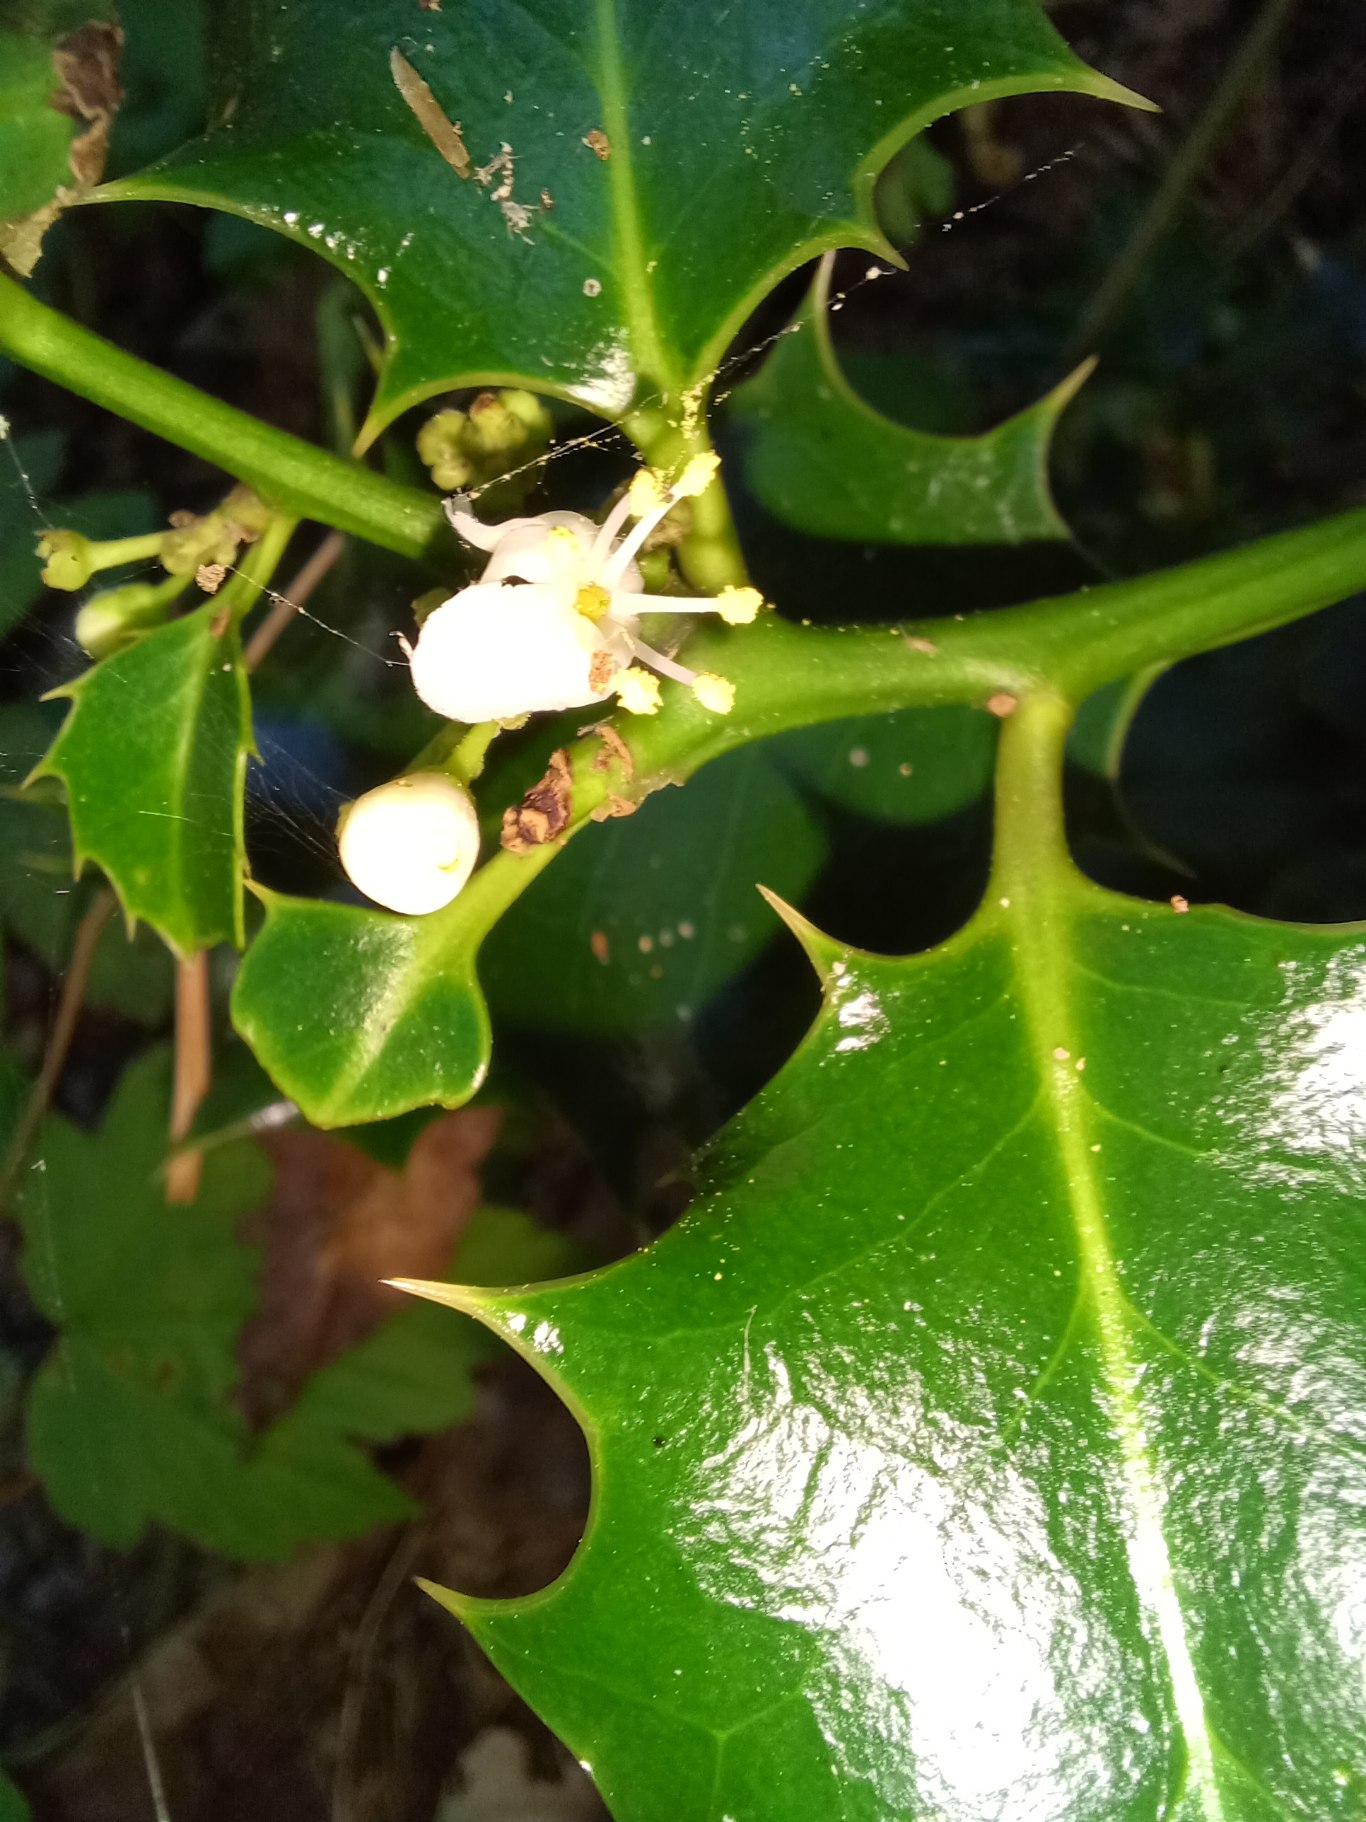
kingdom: Plantae
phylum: Tracheophyta
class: Magnoliopsida
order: Aquifoliales
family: Aquifoliaceae
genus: Ilex
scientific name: Ilex aquifolium
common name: Kristtorn
